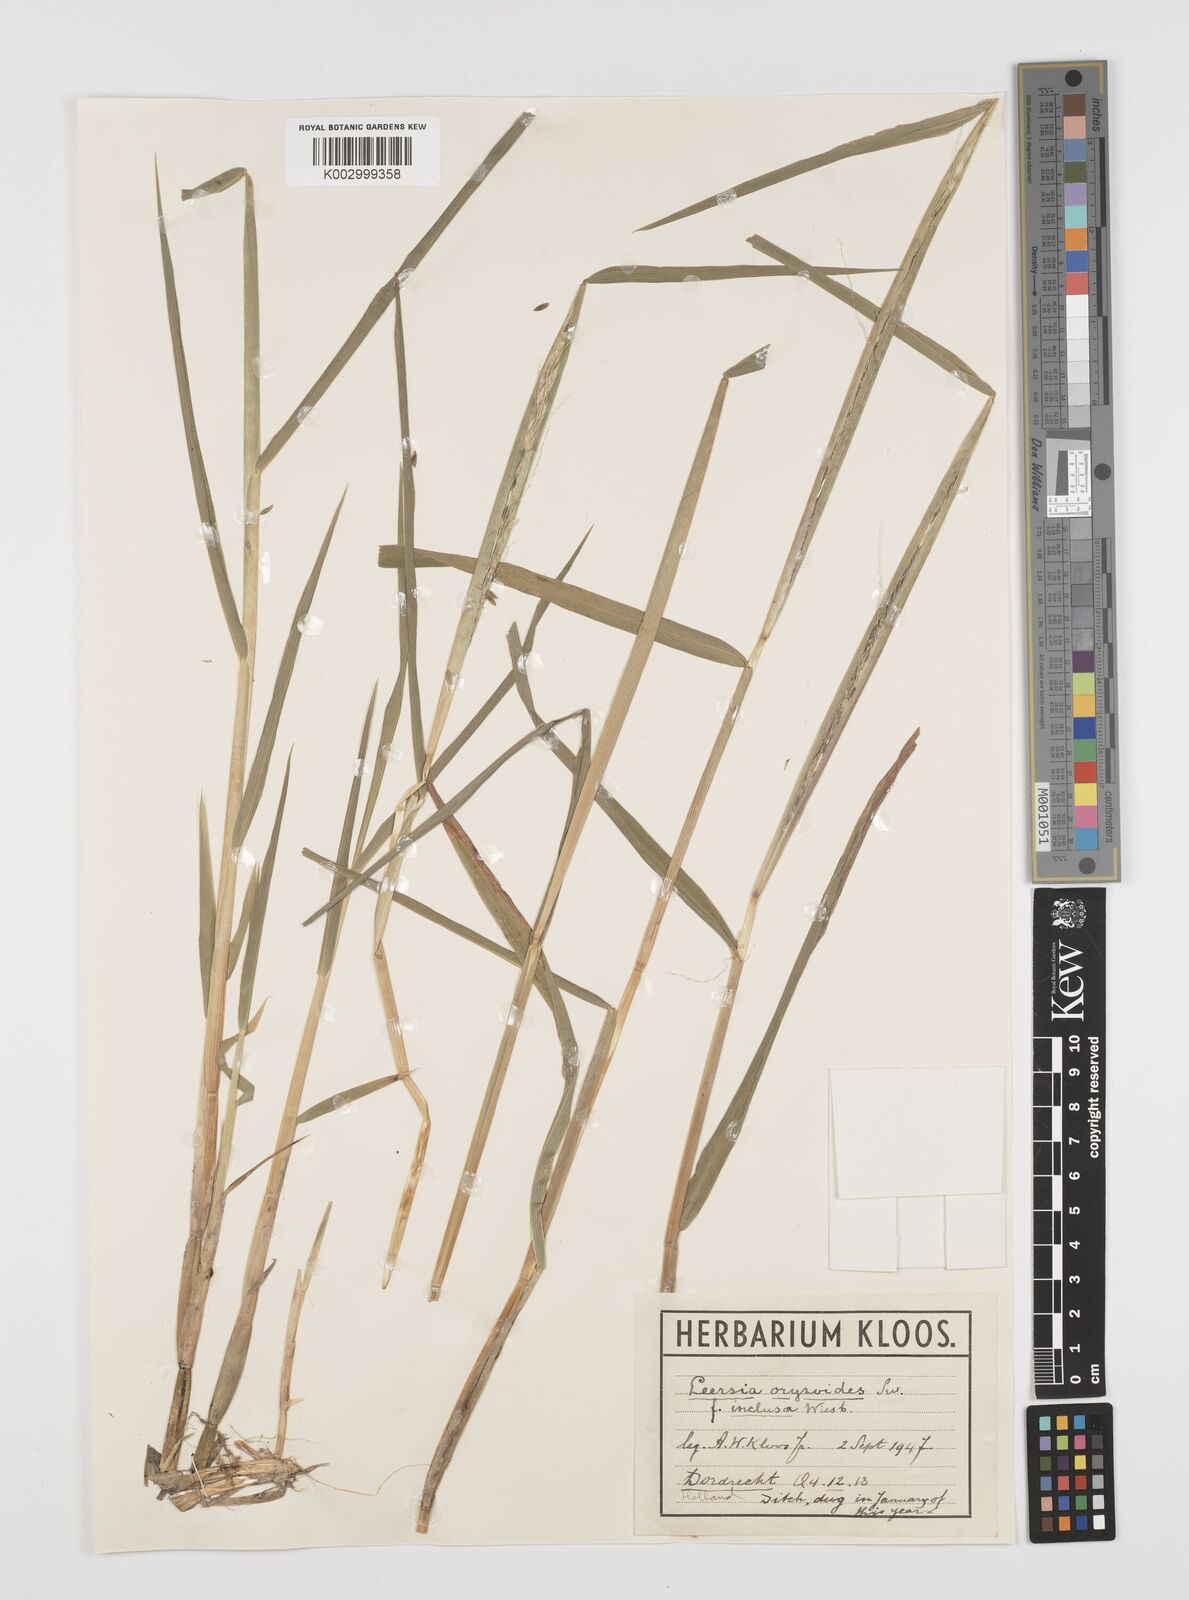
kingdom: Plantae
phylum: Tracheophyta
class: Liliopsida
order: Poales
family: Poaceae
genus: Leersia
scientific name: Leersia oryzoides
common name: Cut-grass
